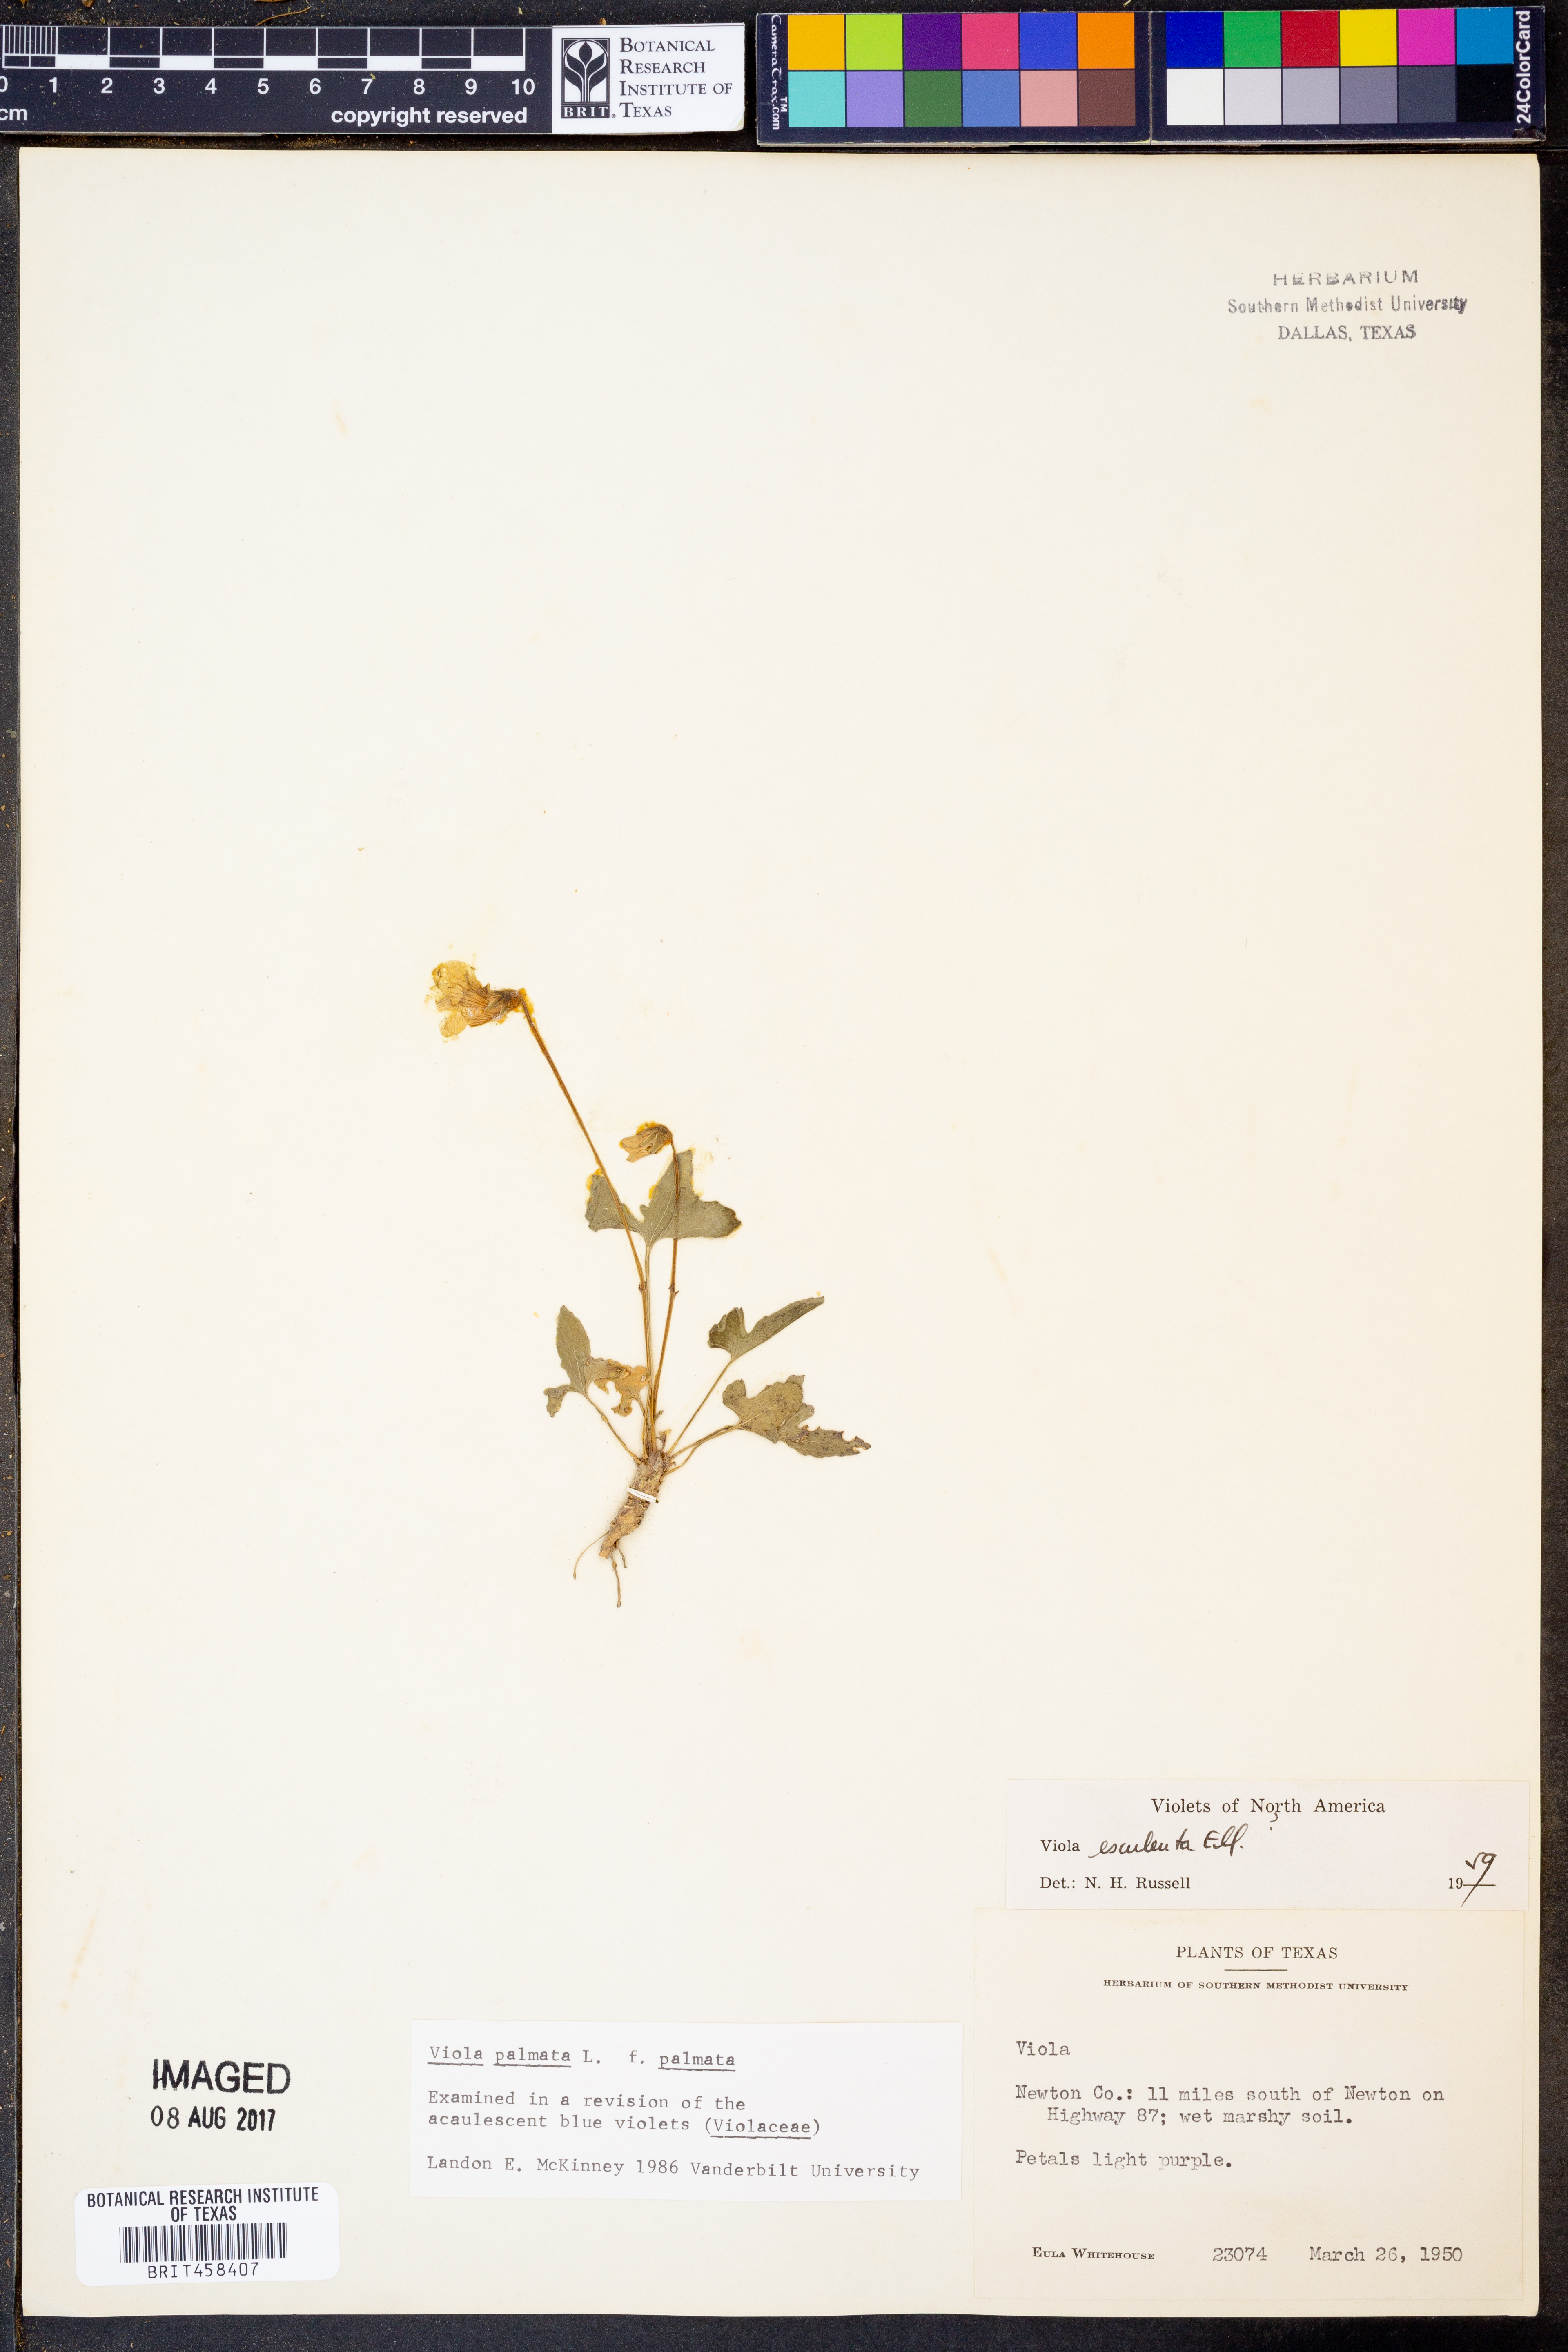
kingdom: Plantae
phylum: Tracheophyta
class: Magnoliopsida
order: Malpighiales
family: Violaceae
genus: Viola
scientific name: Viola palmata
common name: Early blue violet
